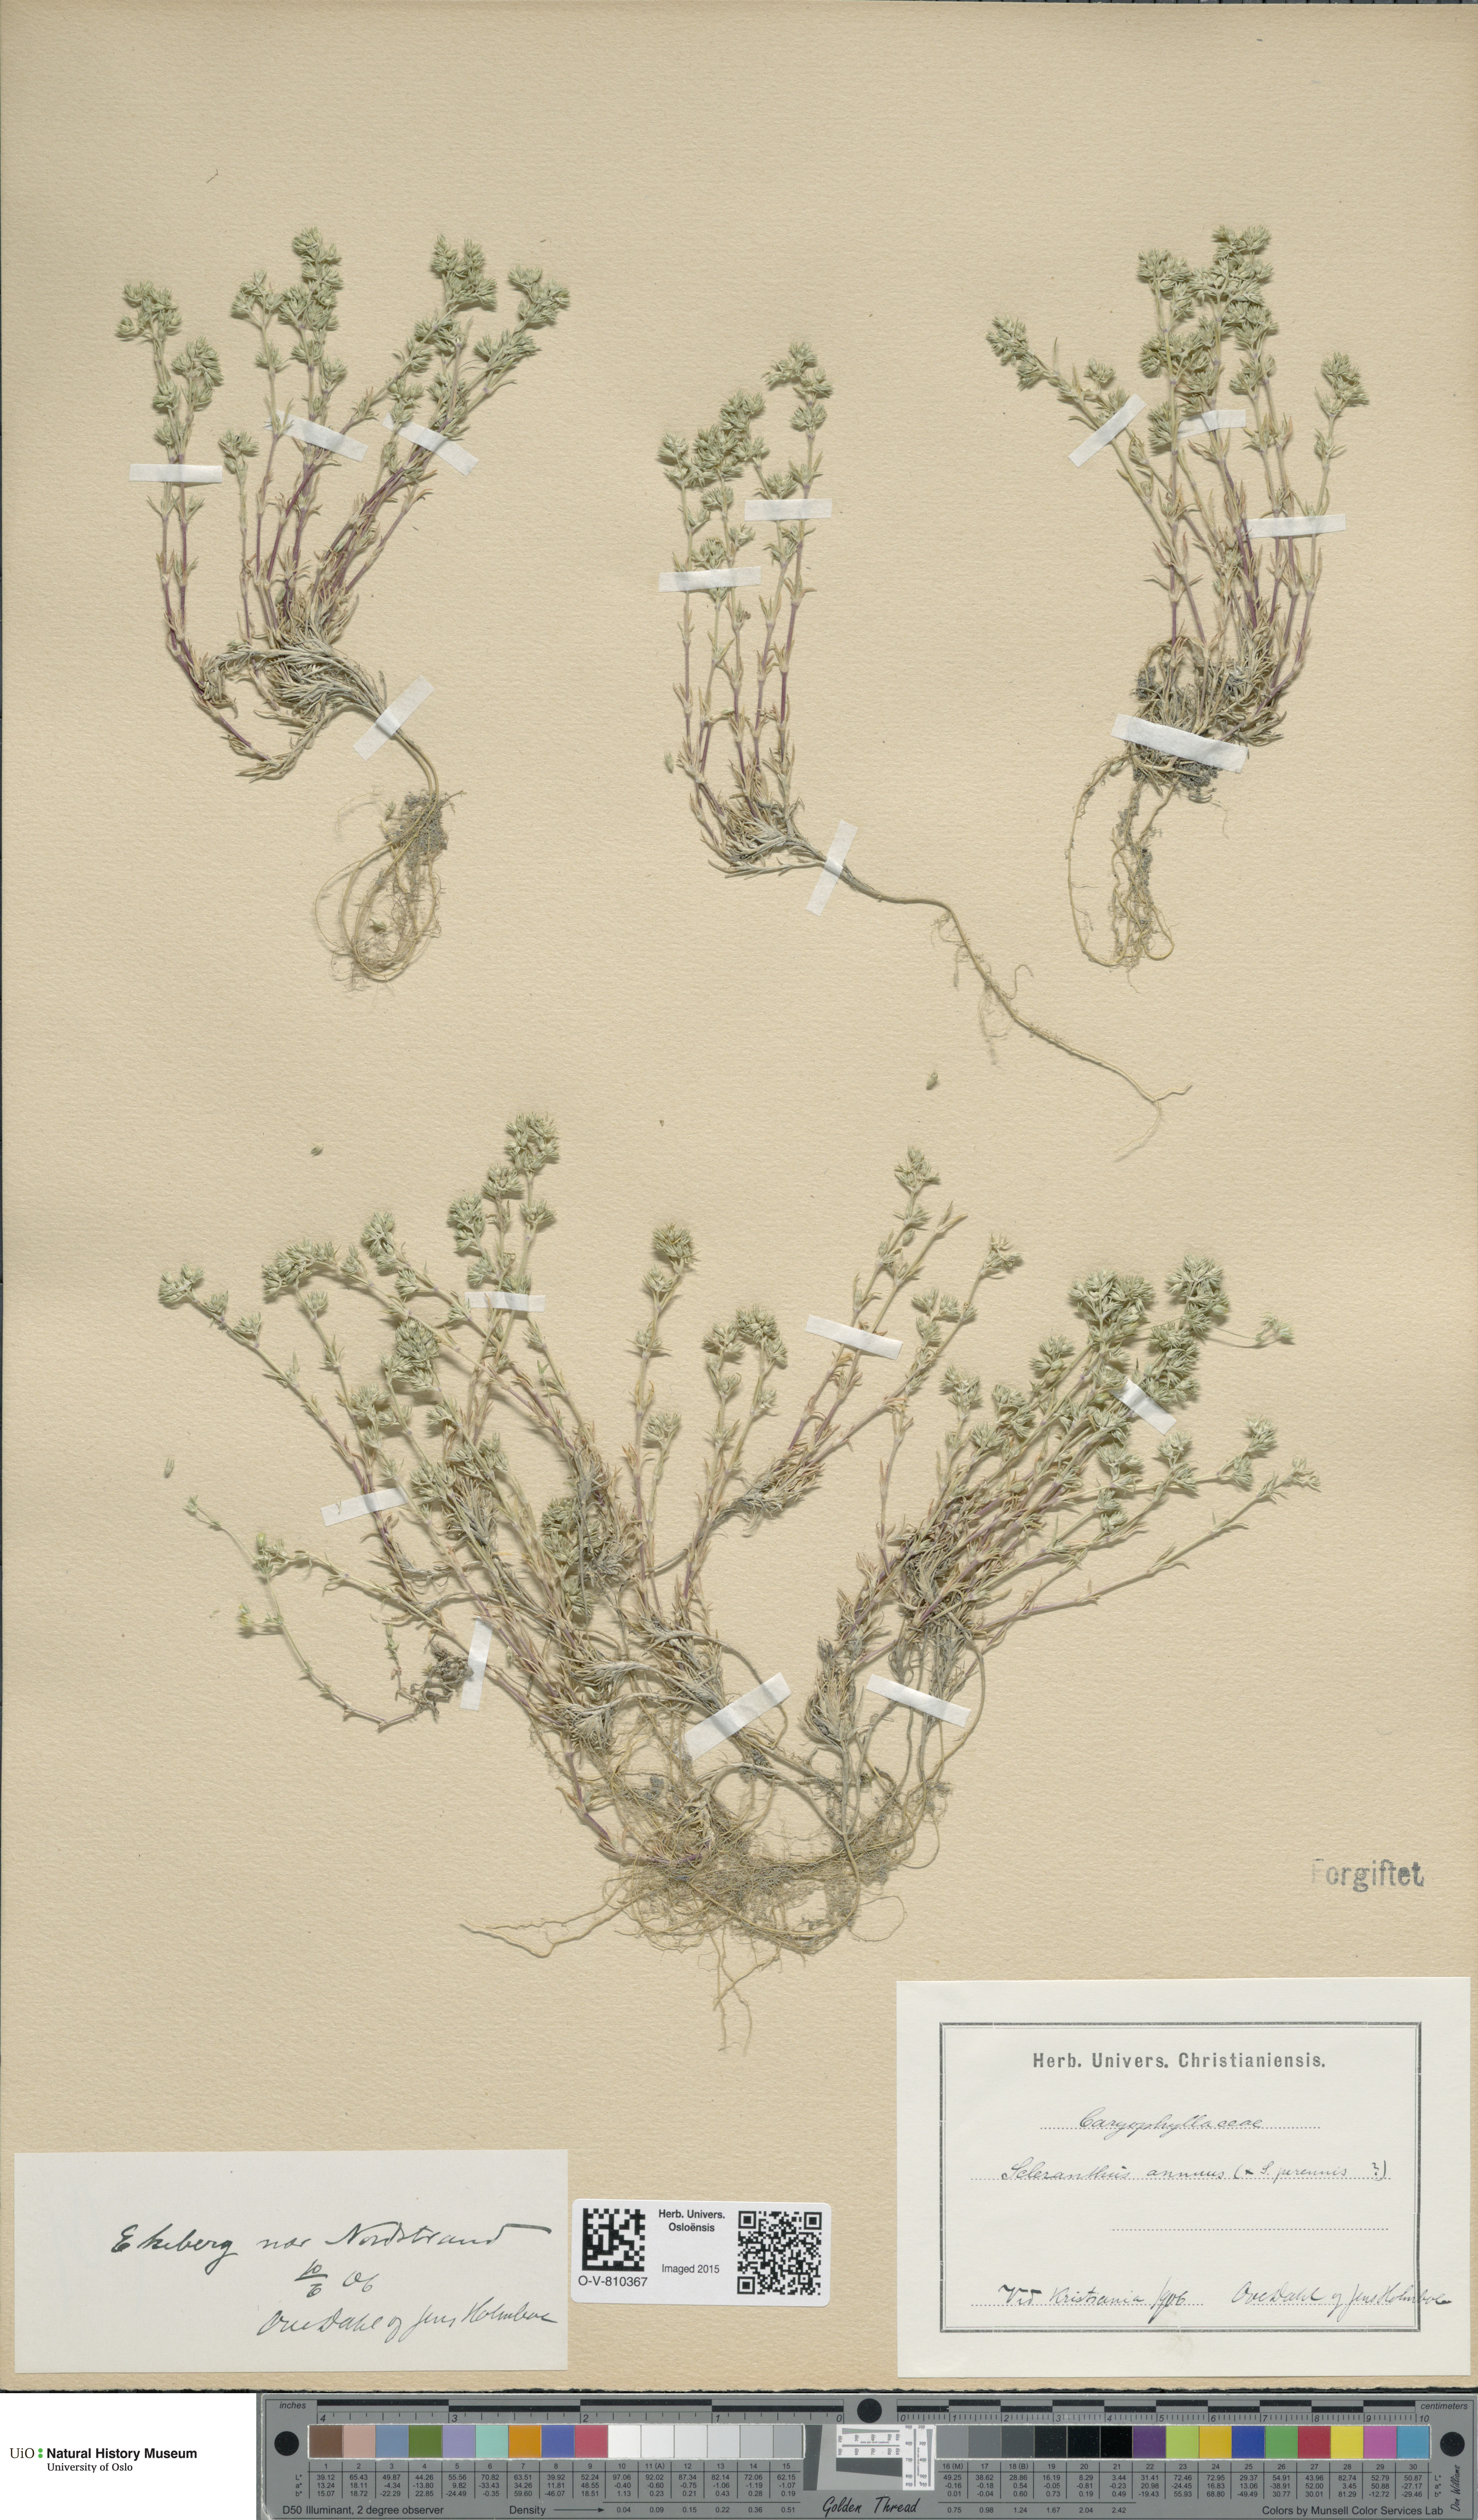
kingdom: Plantae
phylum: Tracheophyta
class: Magnoliopsida
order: Caryophyllales
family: Caryophyllaceae
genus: Scleranthus
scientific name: Scleranthus annuus
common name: Annual knawel
